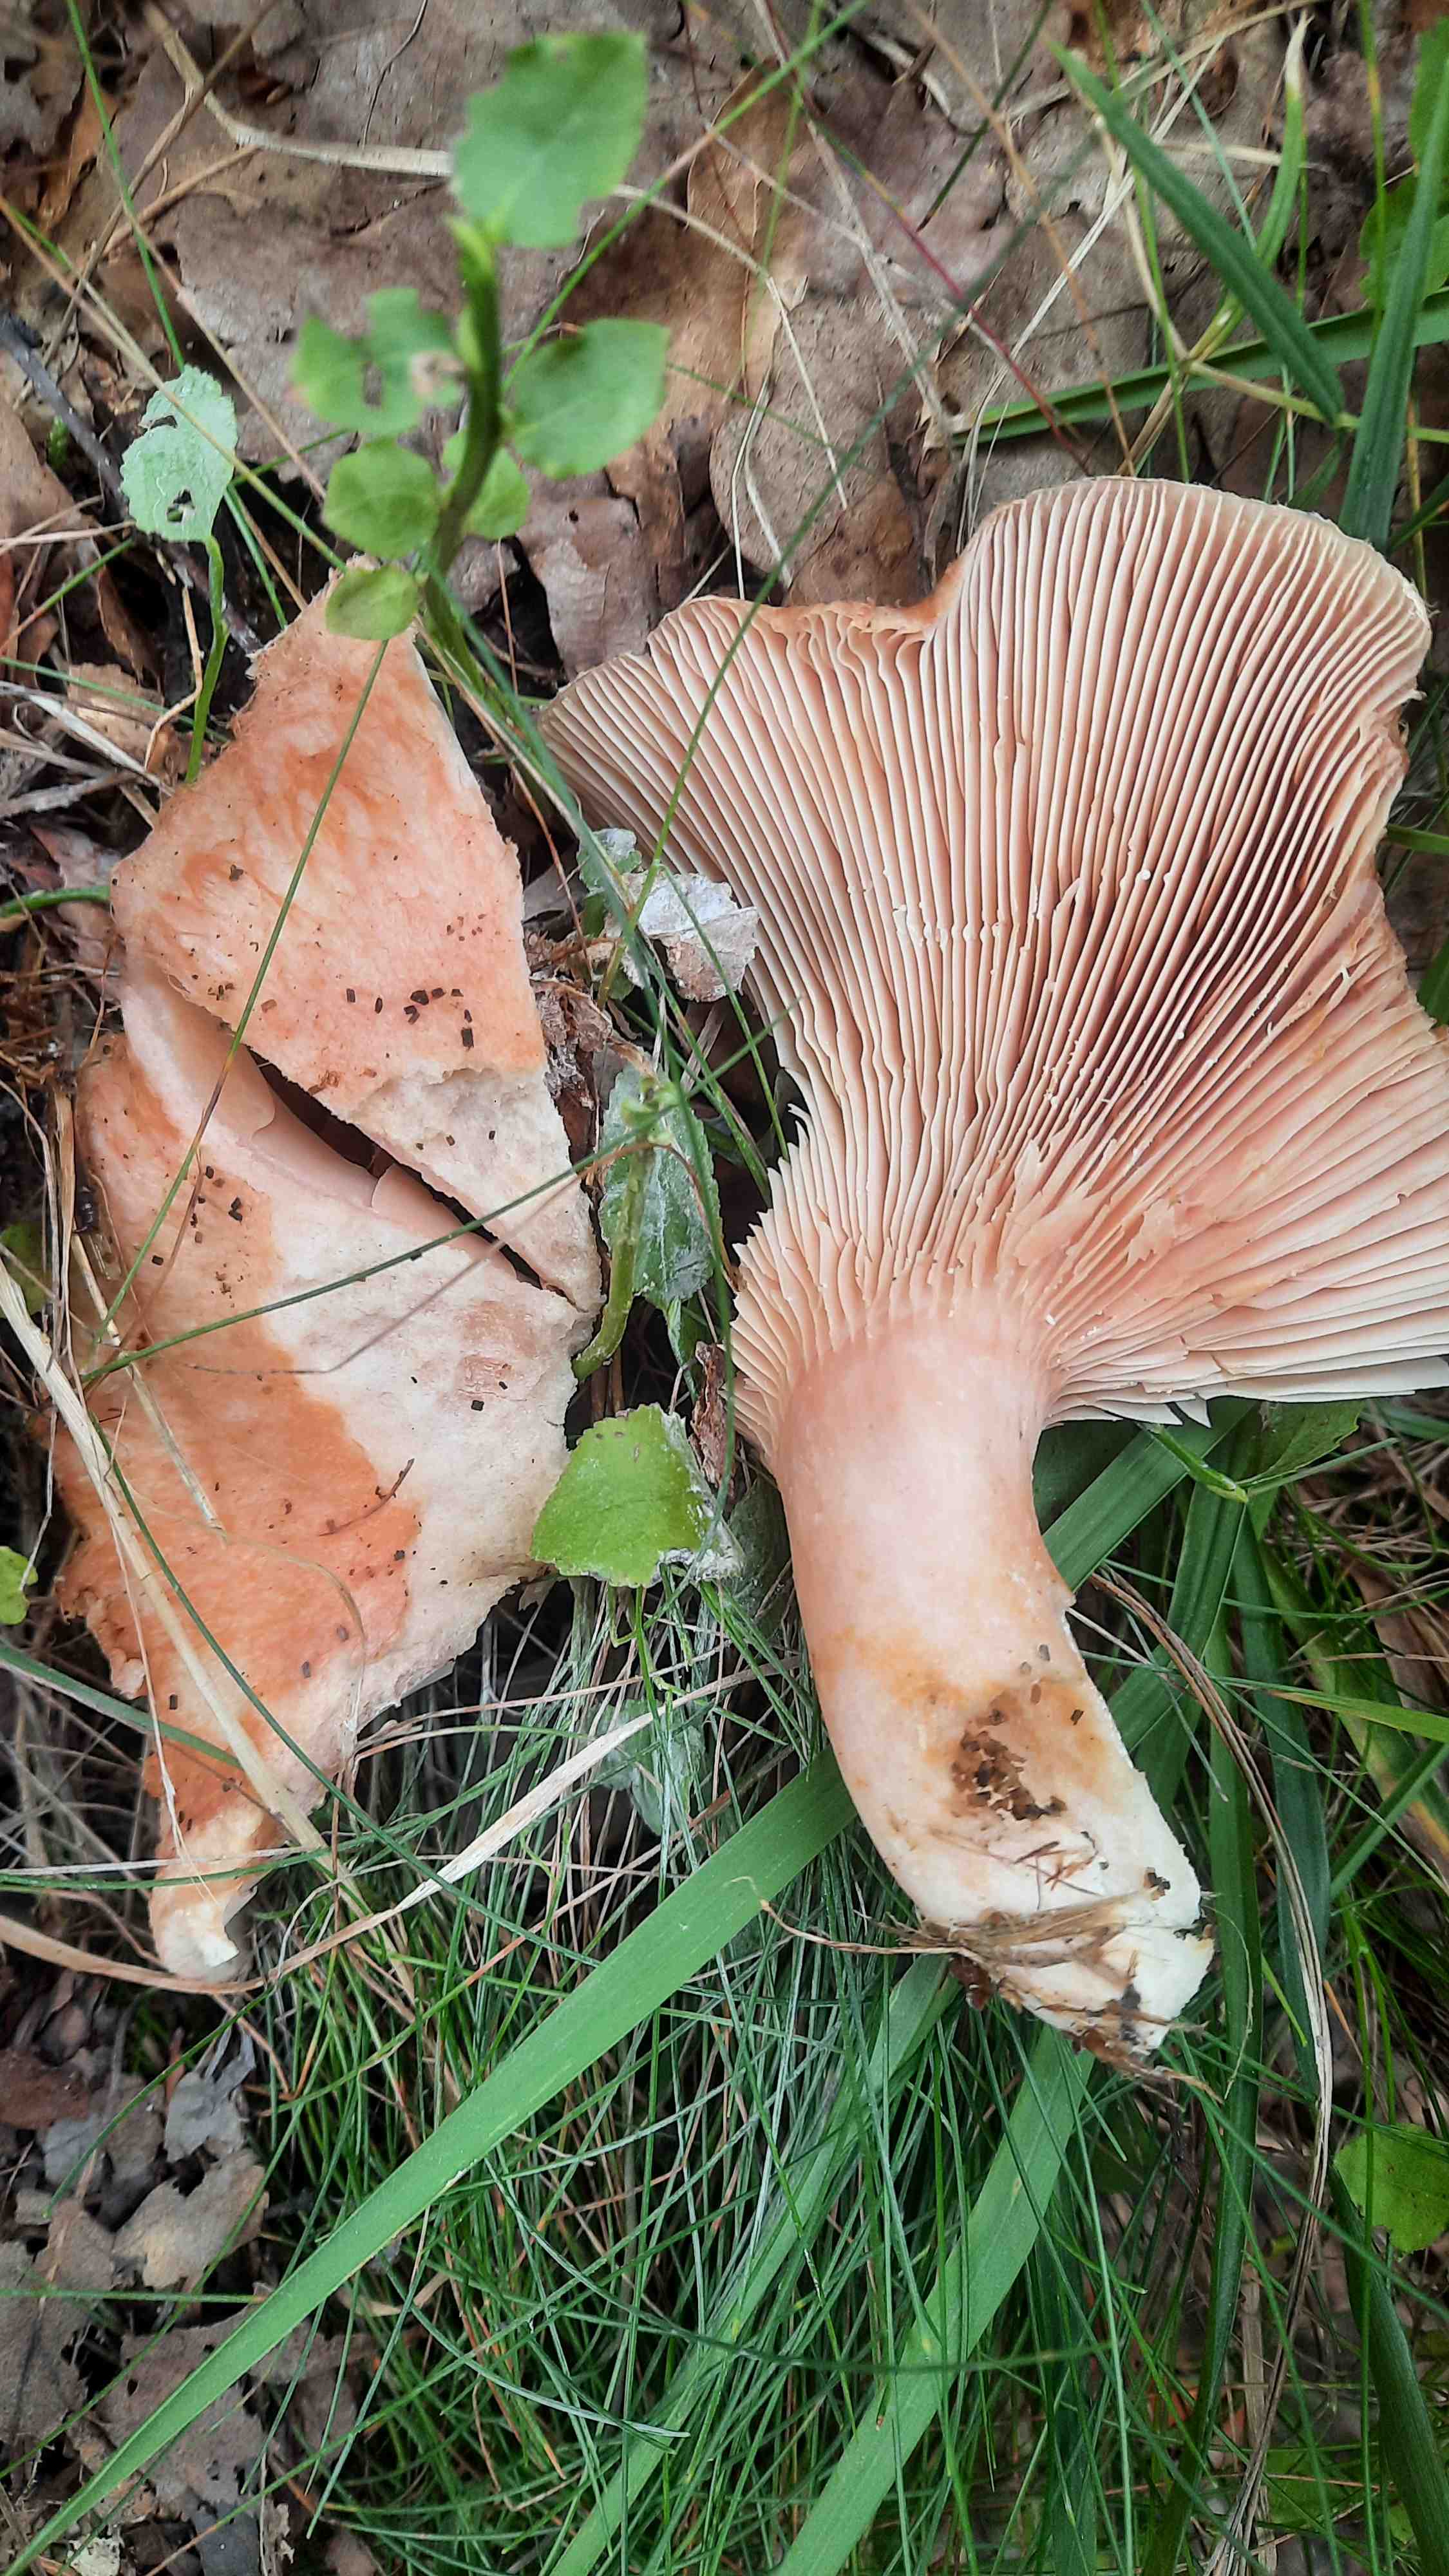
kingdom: Fungi
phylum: Basidiomycota
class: Agaricomycetes
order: Russulales
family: Russulaceae
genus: Lactarius
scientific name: Lactarius
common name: mælkehat
